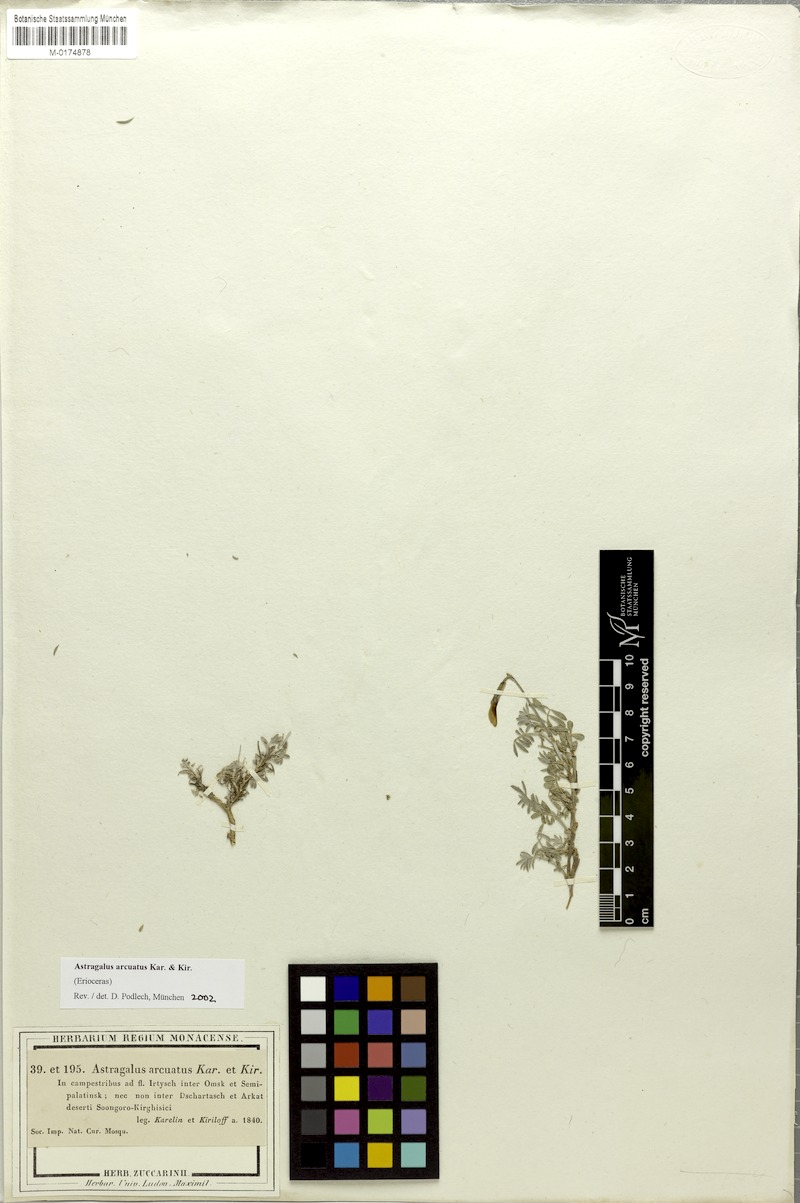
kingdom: Plantae
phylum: Tracheophyta
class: Magnoliopsida
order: Fabales
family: Fabaceae
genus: Astragalus
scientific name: Astragalus arcuatus
